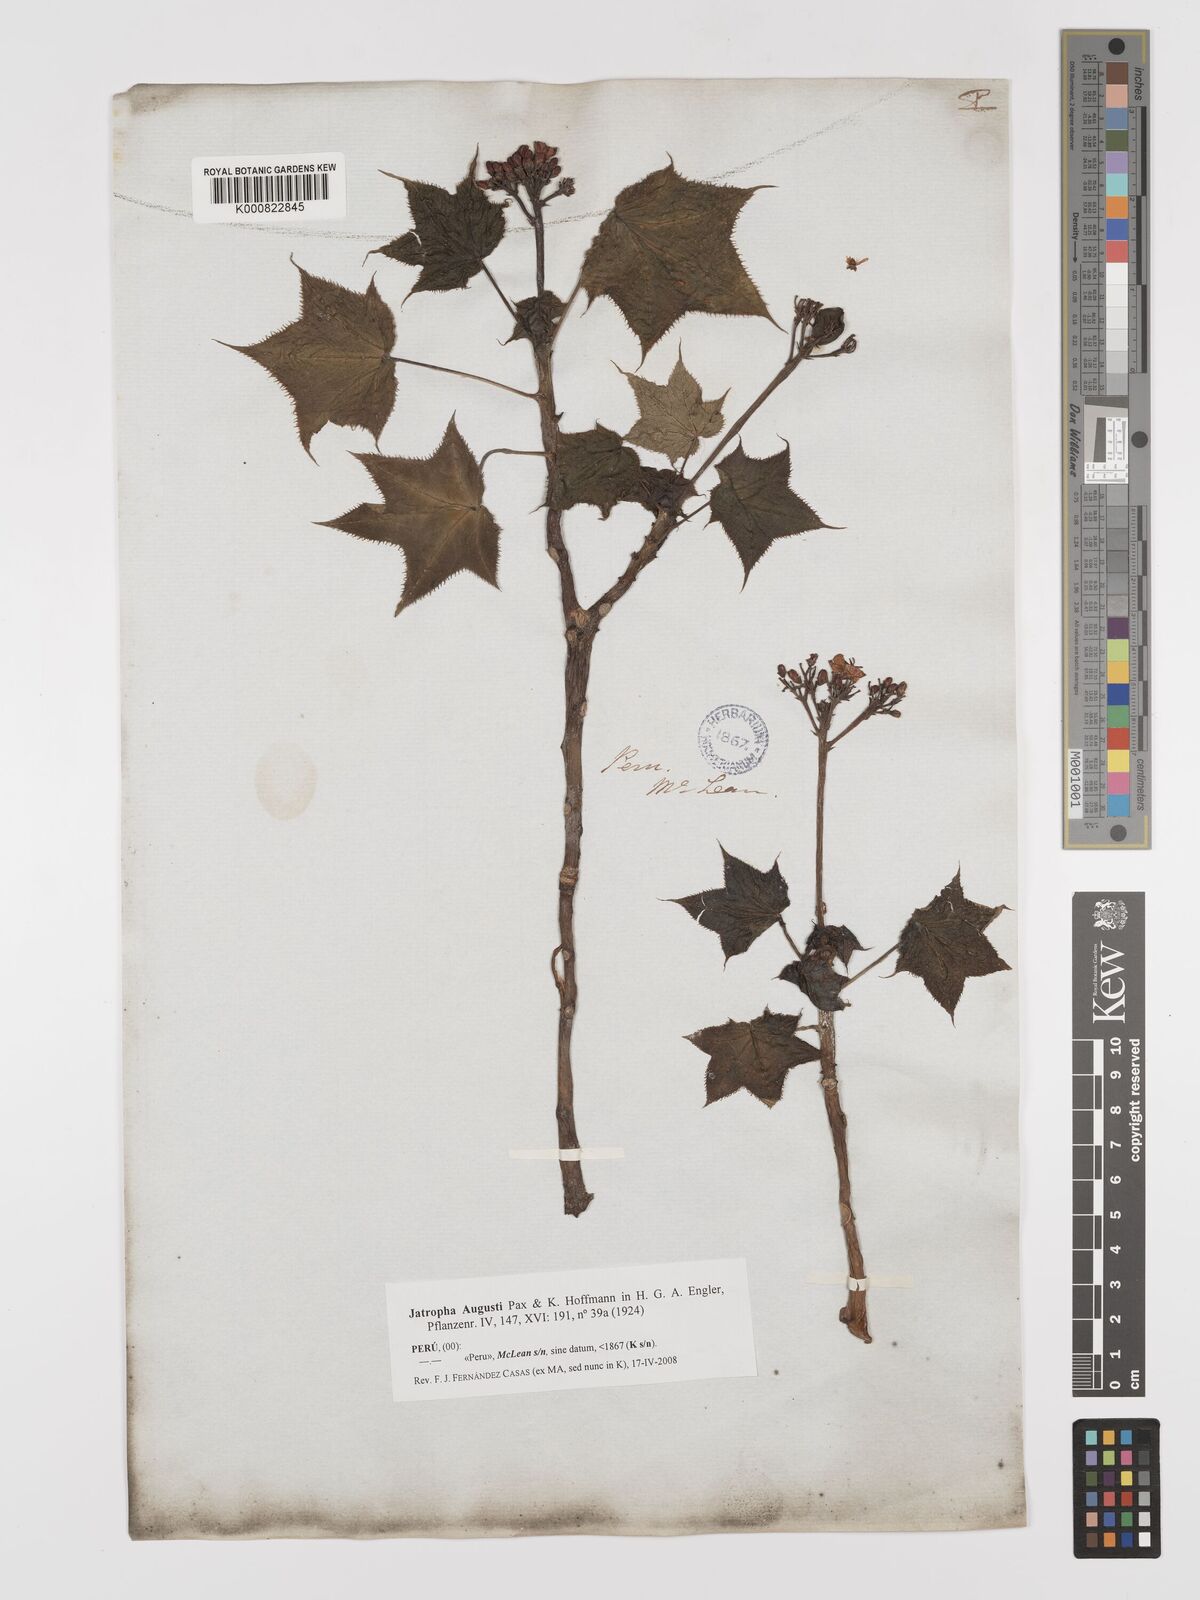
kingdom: Plantae
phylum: Tracheophyta
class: Magnoliopsida
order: Malpighiales
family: Euphorbiaceae
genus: Jatropha
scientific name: Jatropha augusti
